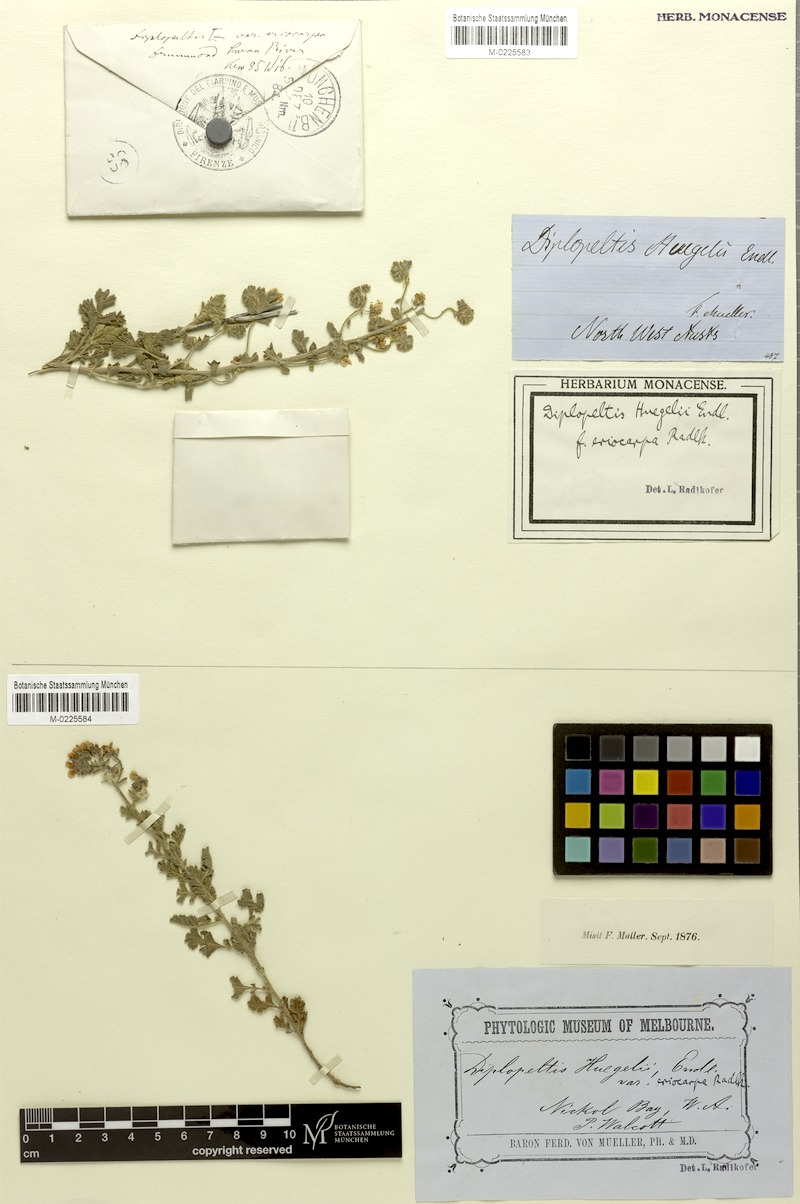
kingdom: Plantae
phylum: Tracheophyta
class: Magnoliopsida
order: Sapindales
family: Sapindaceae
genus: Diplopeltis
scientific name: Diplopeltis eriocarpa
